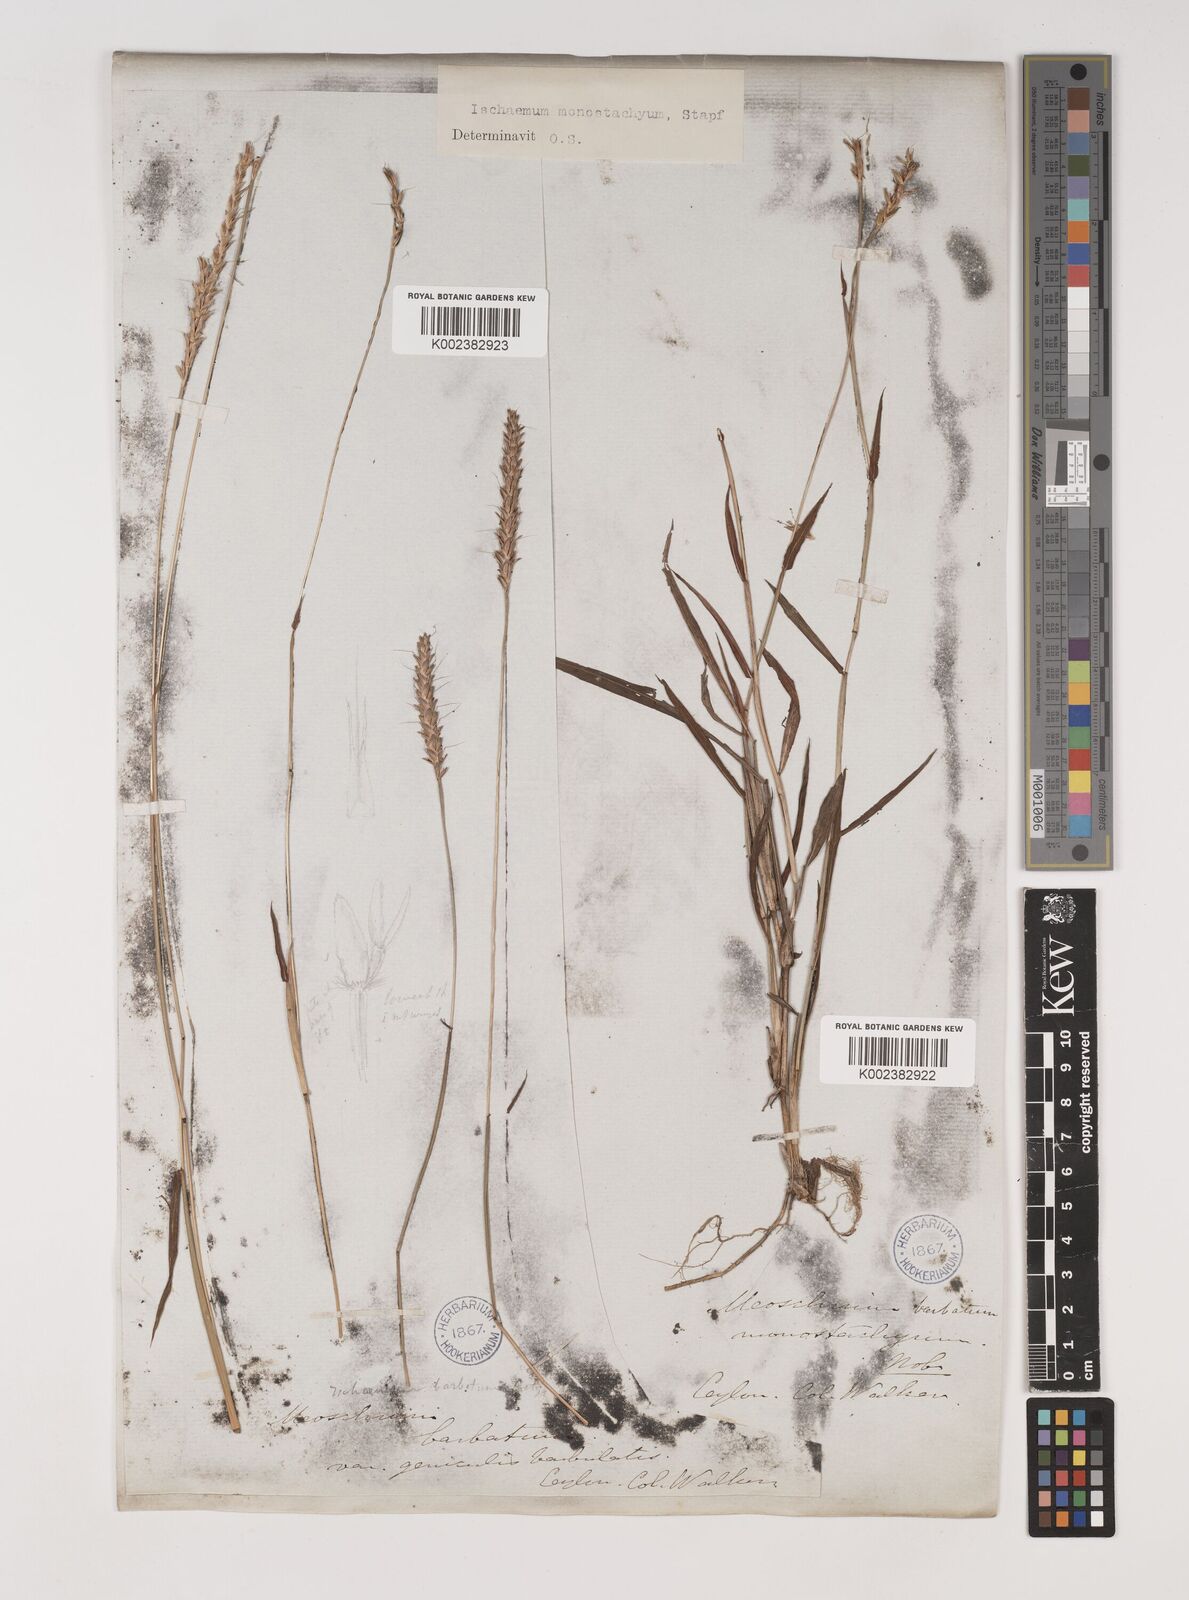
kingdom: Plantae
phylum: Tracheophyta
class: Liliopsida
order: Poales
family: Poaceae
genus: Ischaemum
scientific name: Ischaemum
